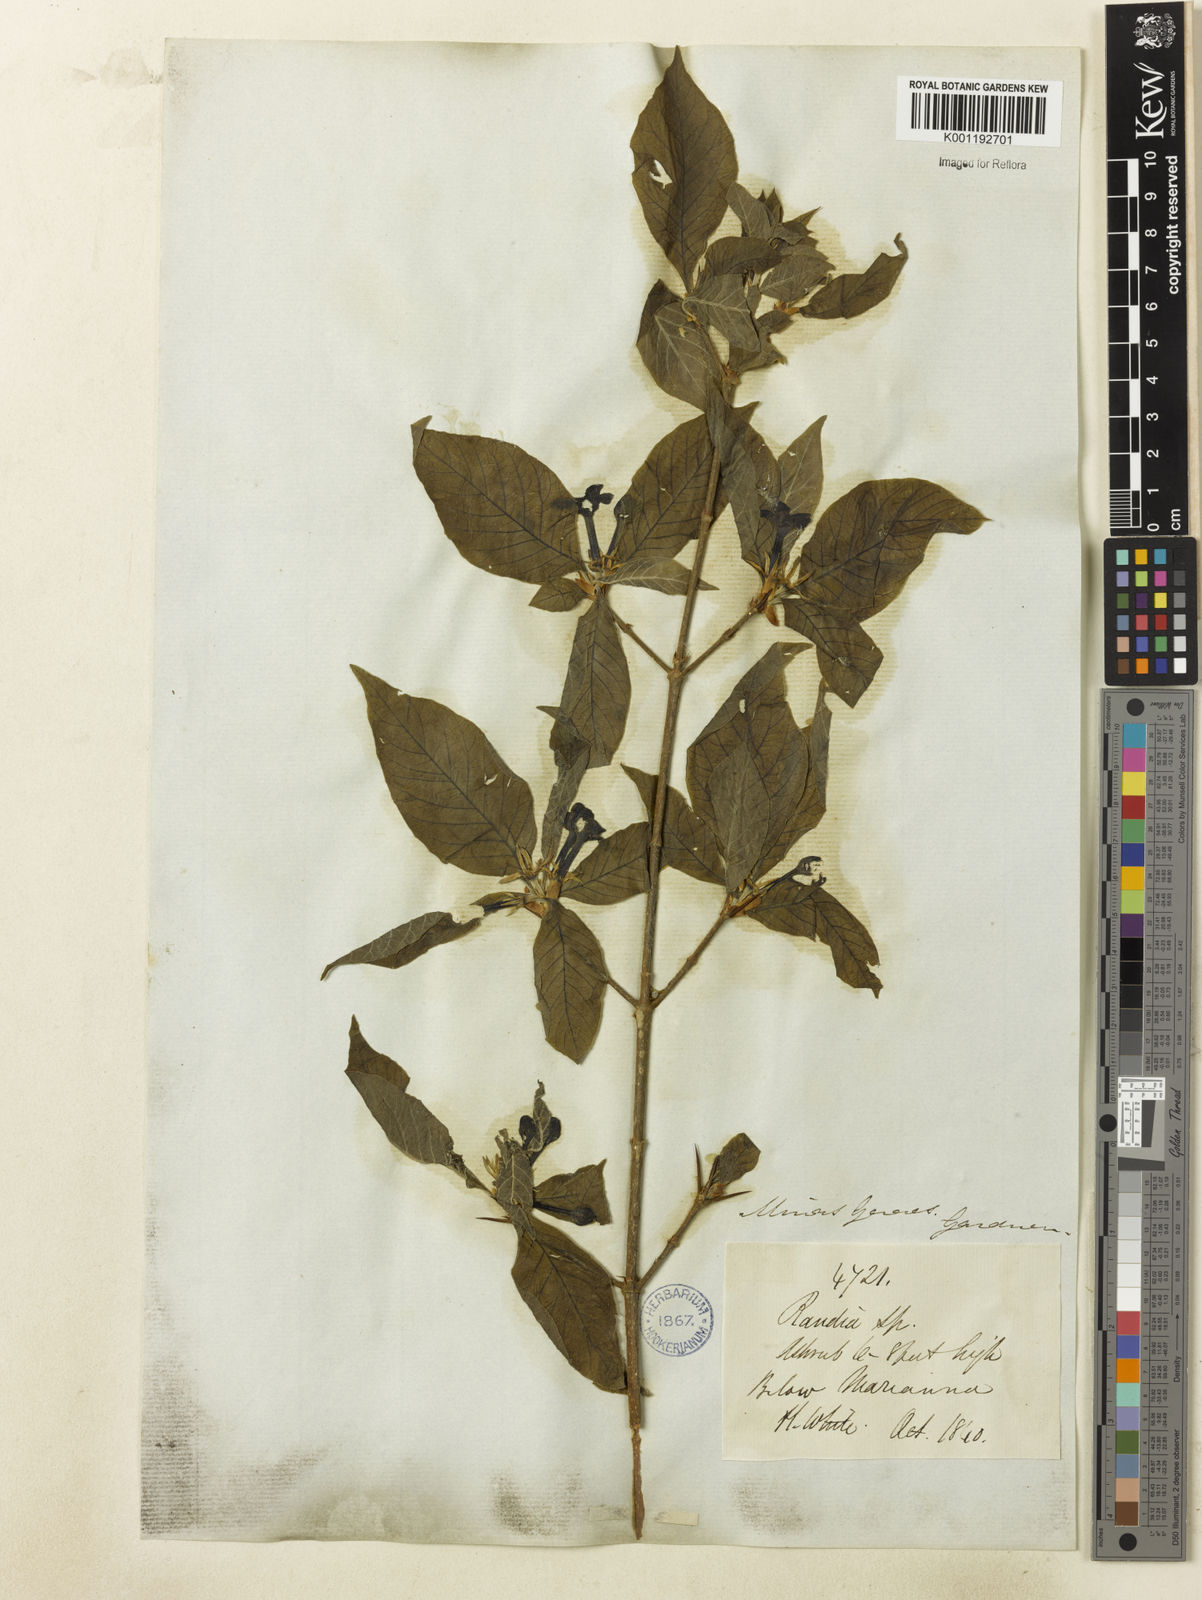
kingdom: Plantae
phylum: Tracheophyta
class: Magnoliopsida
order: Gentianales
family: Rubiaceae
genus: Randia
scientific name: Randia nitida
